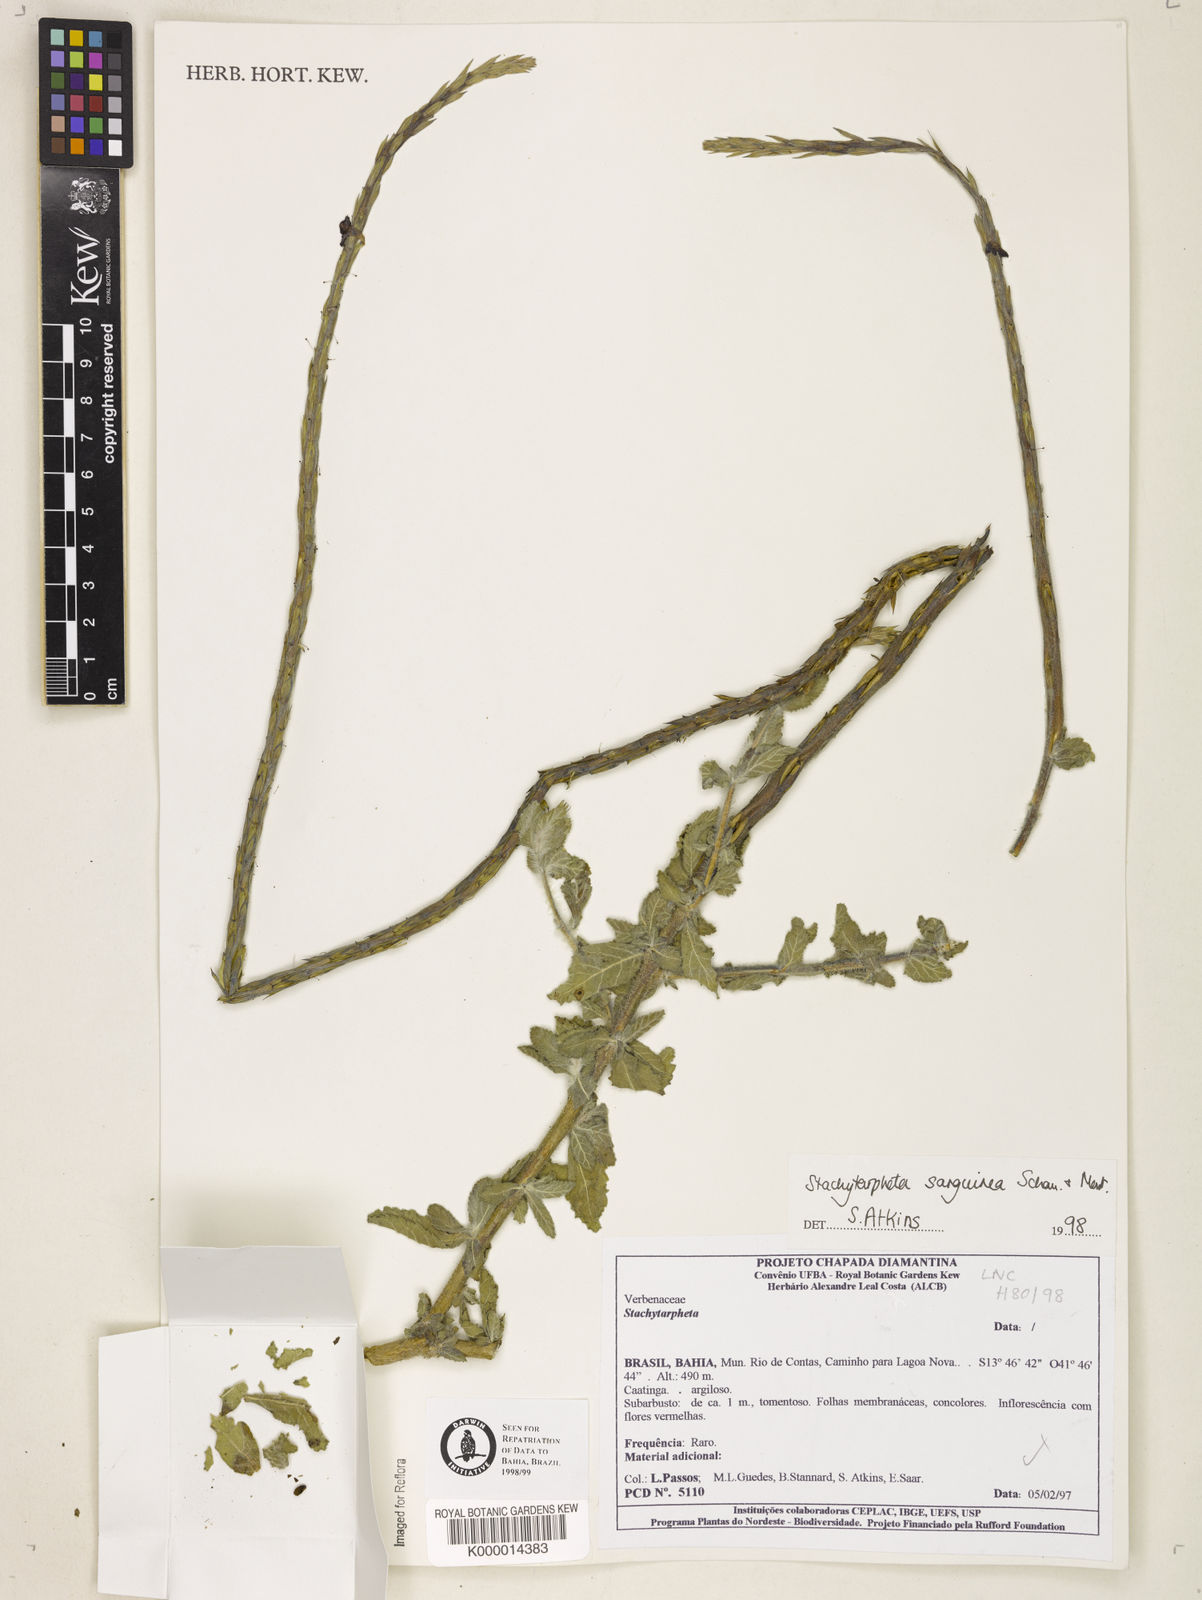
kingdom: Plantae
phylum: Tracheophyta
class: Magnoliopsida
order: Lamiales
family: Verbenaceae
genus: Stachytarpheta
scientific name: Stachytarpheta
